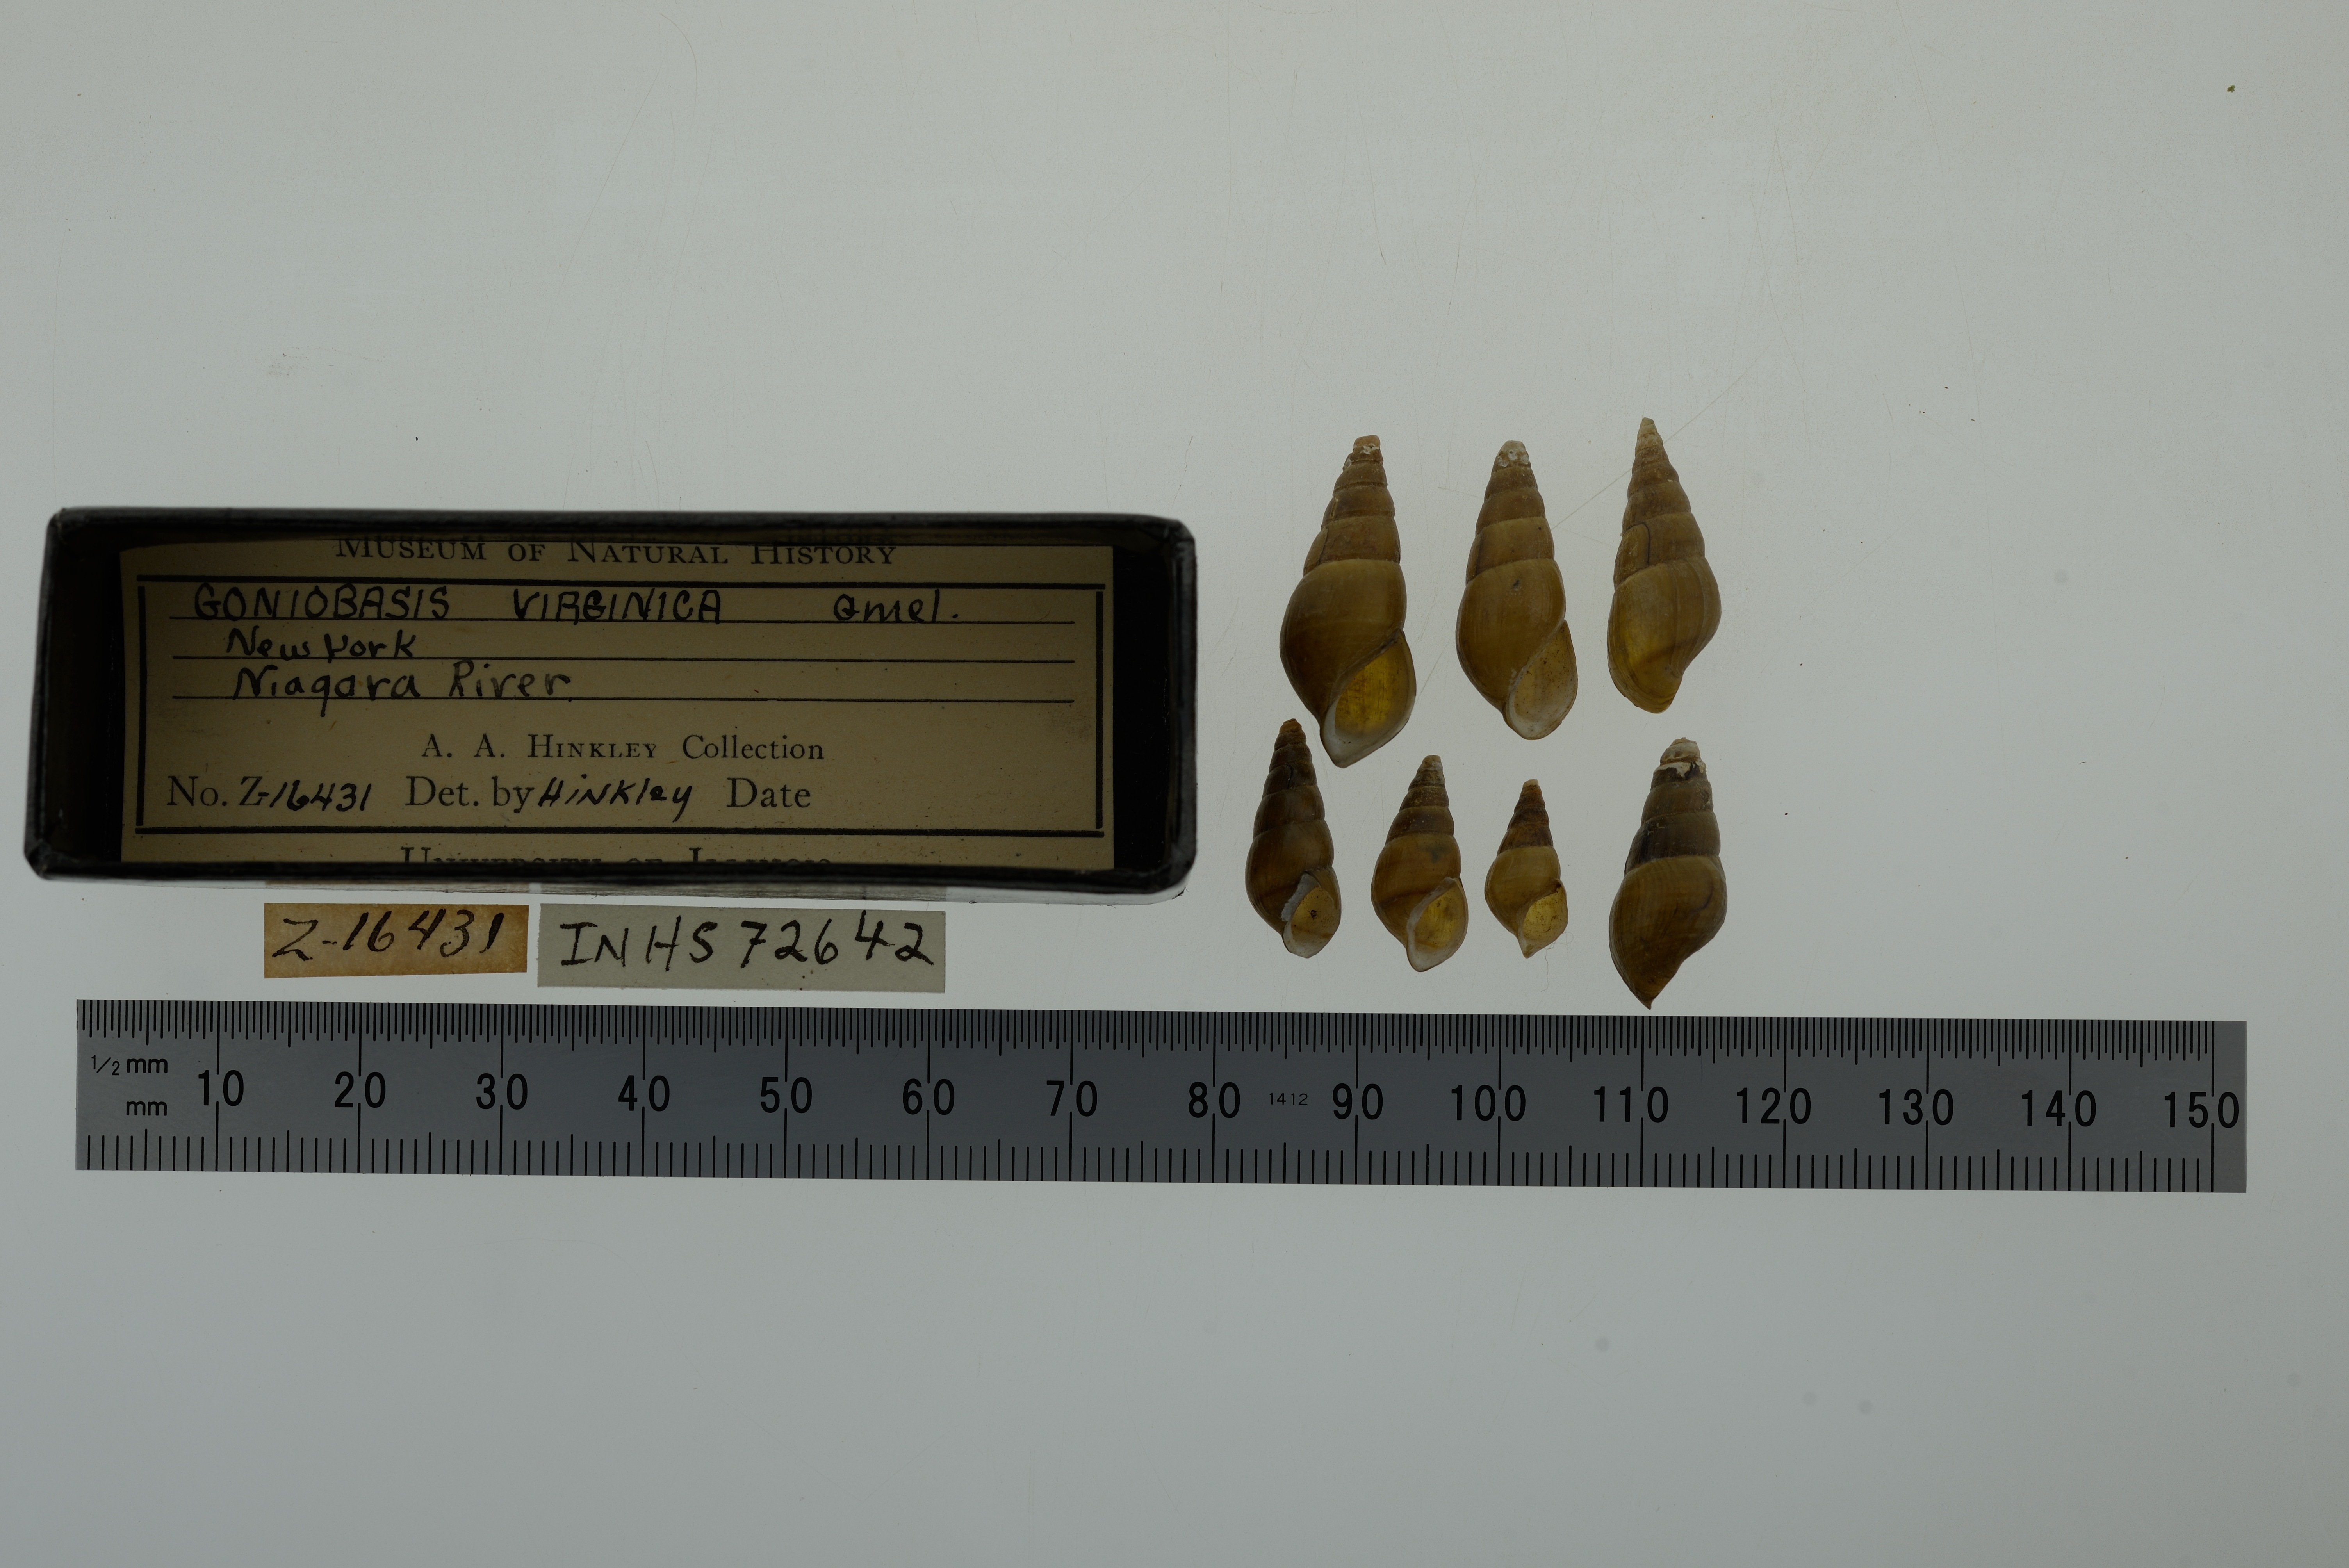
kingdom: Animalia
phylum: Mollusca
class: Gastropoda
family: Pleuroceridae
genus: Elimia
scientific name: Elimia virginica
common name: Piedmont elimia
